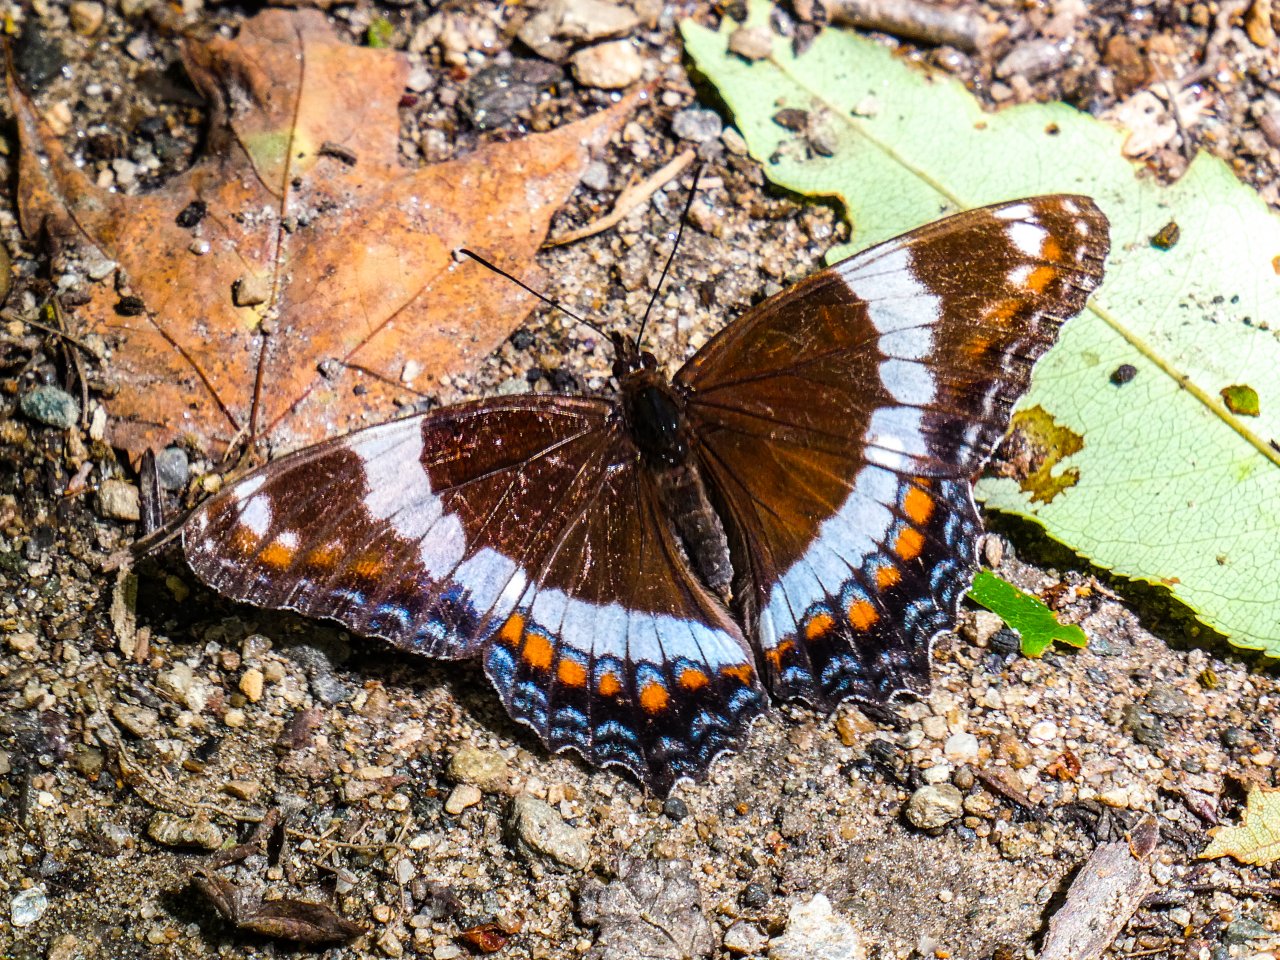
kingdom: Animalia
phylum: Arthropoda
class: Insecta
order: Lepidoptera
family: Nymphalidae
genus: Limenitis
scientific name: Limenitis arthemis
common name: Red-spotted Admiral
